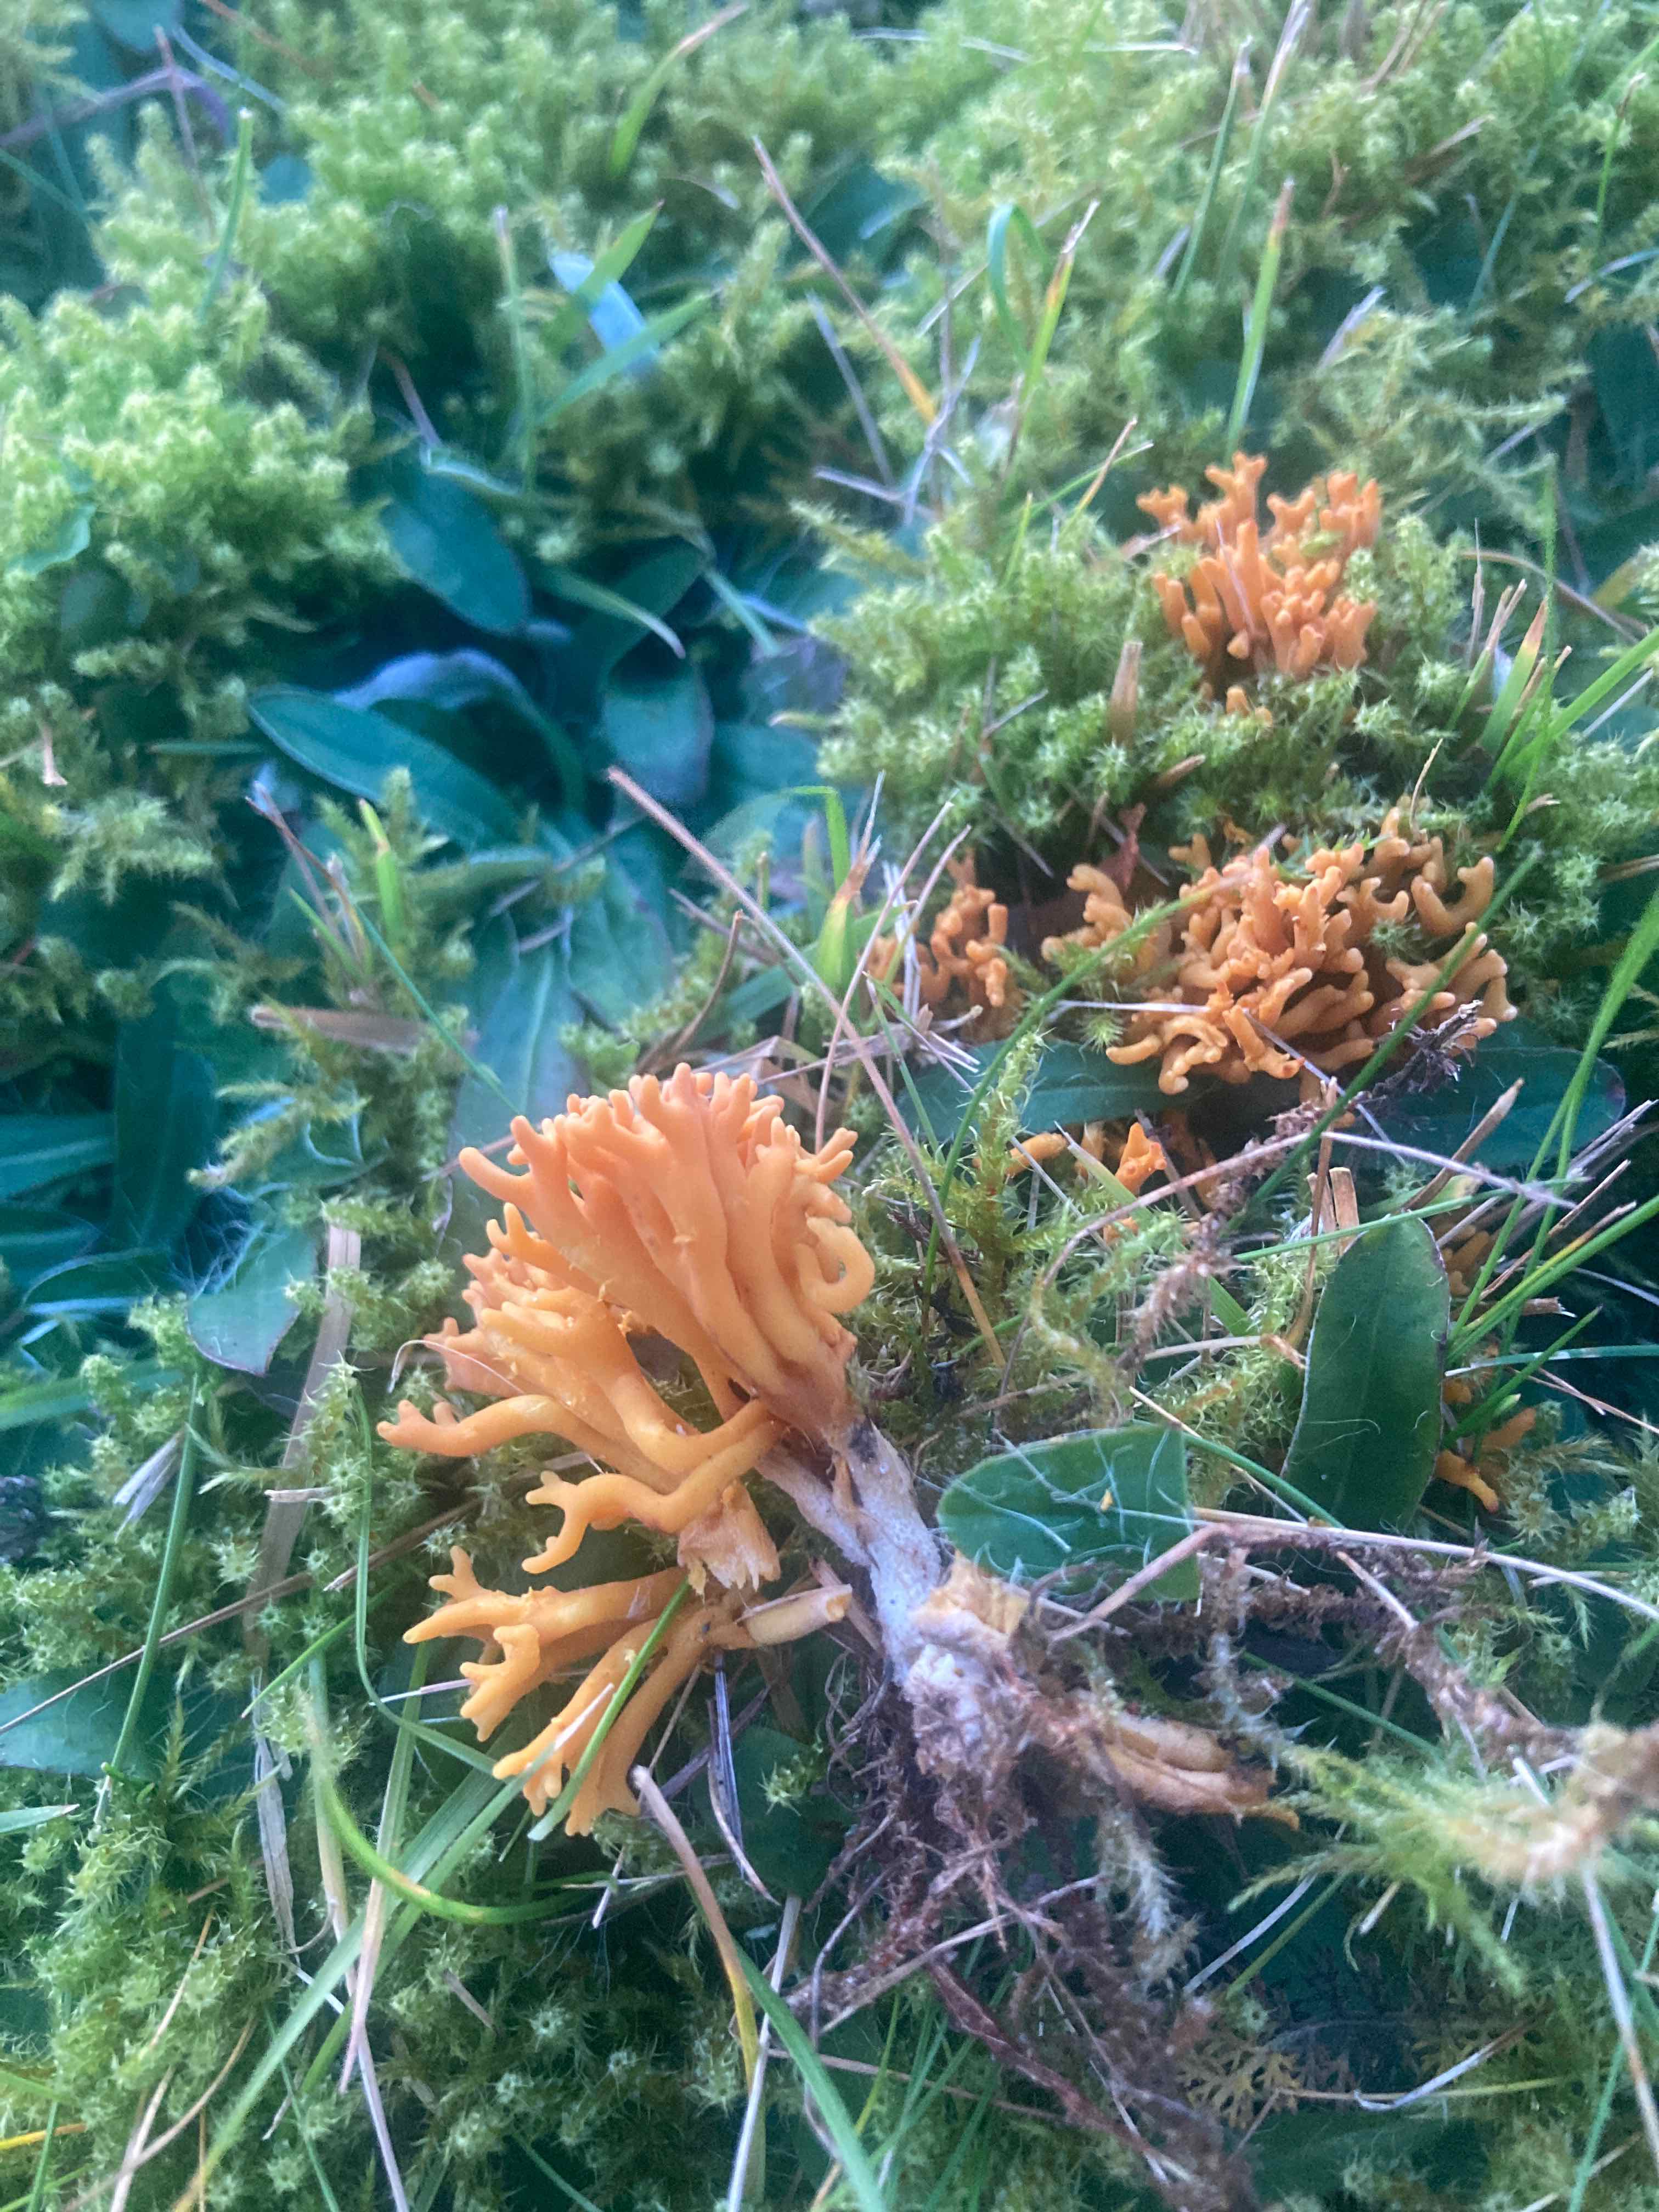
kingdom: Fungi
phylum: Basidiomycota
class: Agaricomycetes
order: Agaricales
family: Clavariaceae
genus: Clavulinopsis
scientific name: Clavulinopsis corniculata
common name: eng-køllesvamp
